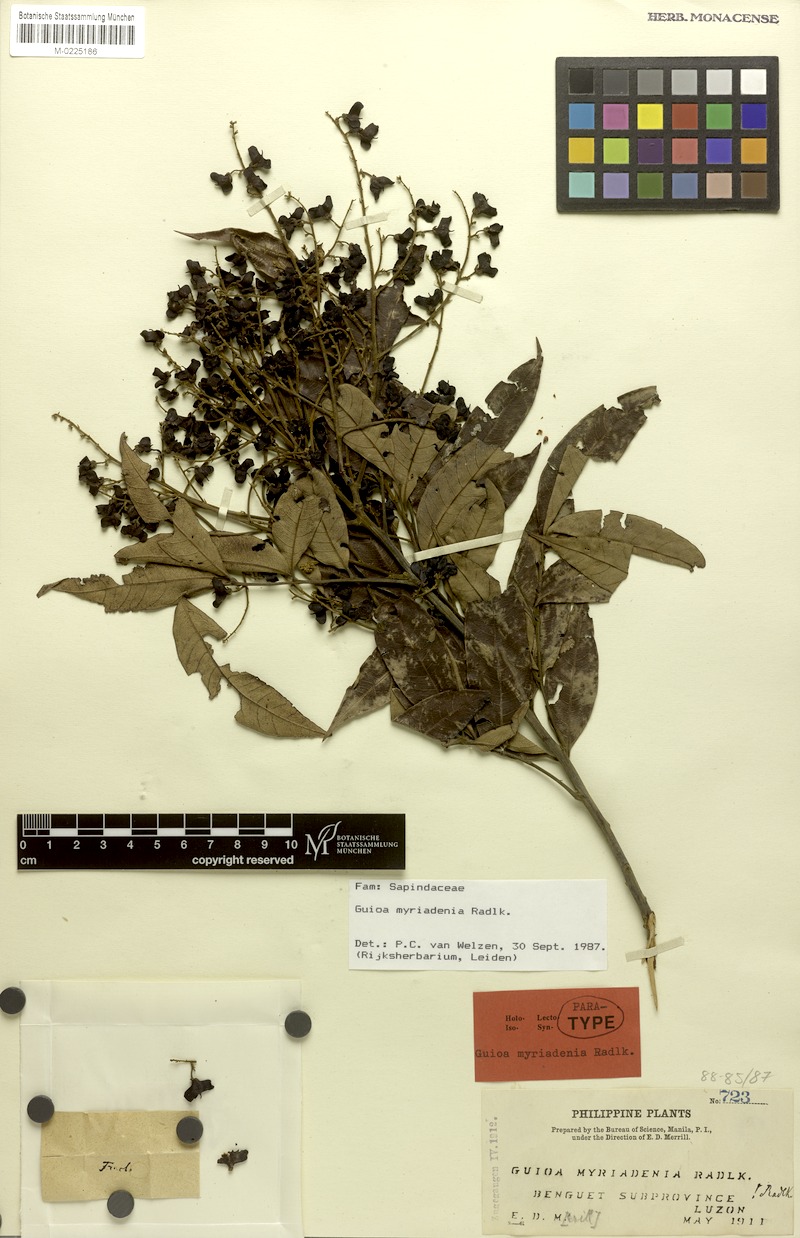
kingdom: Plantae
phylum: Tracheophyta
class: Magnoliopsida
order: Sapindales
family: Sapindaceae
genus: Guioa
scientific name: Guioa myriadenia
